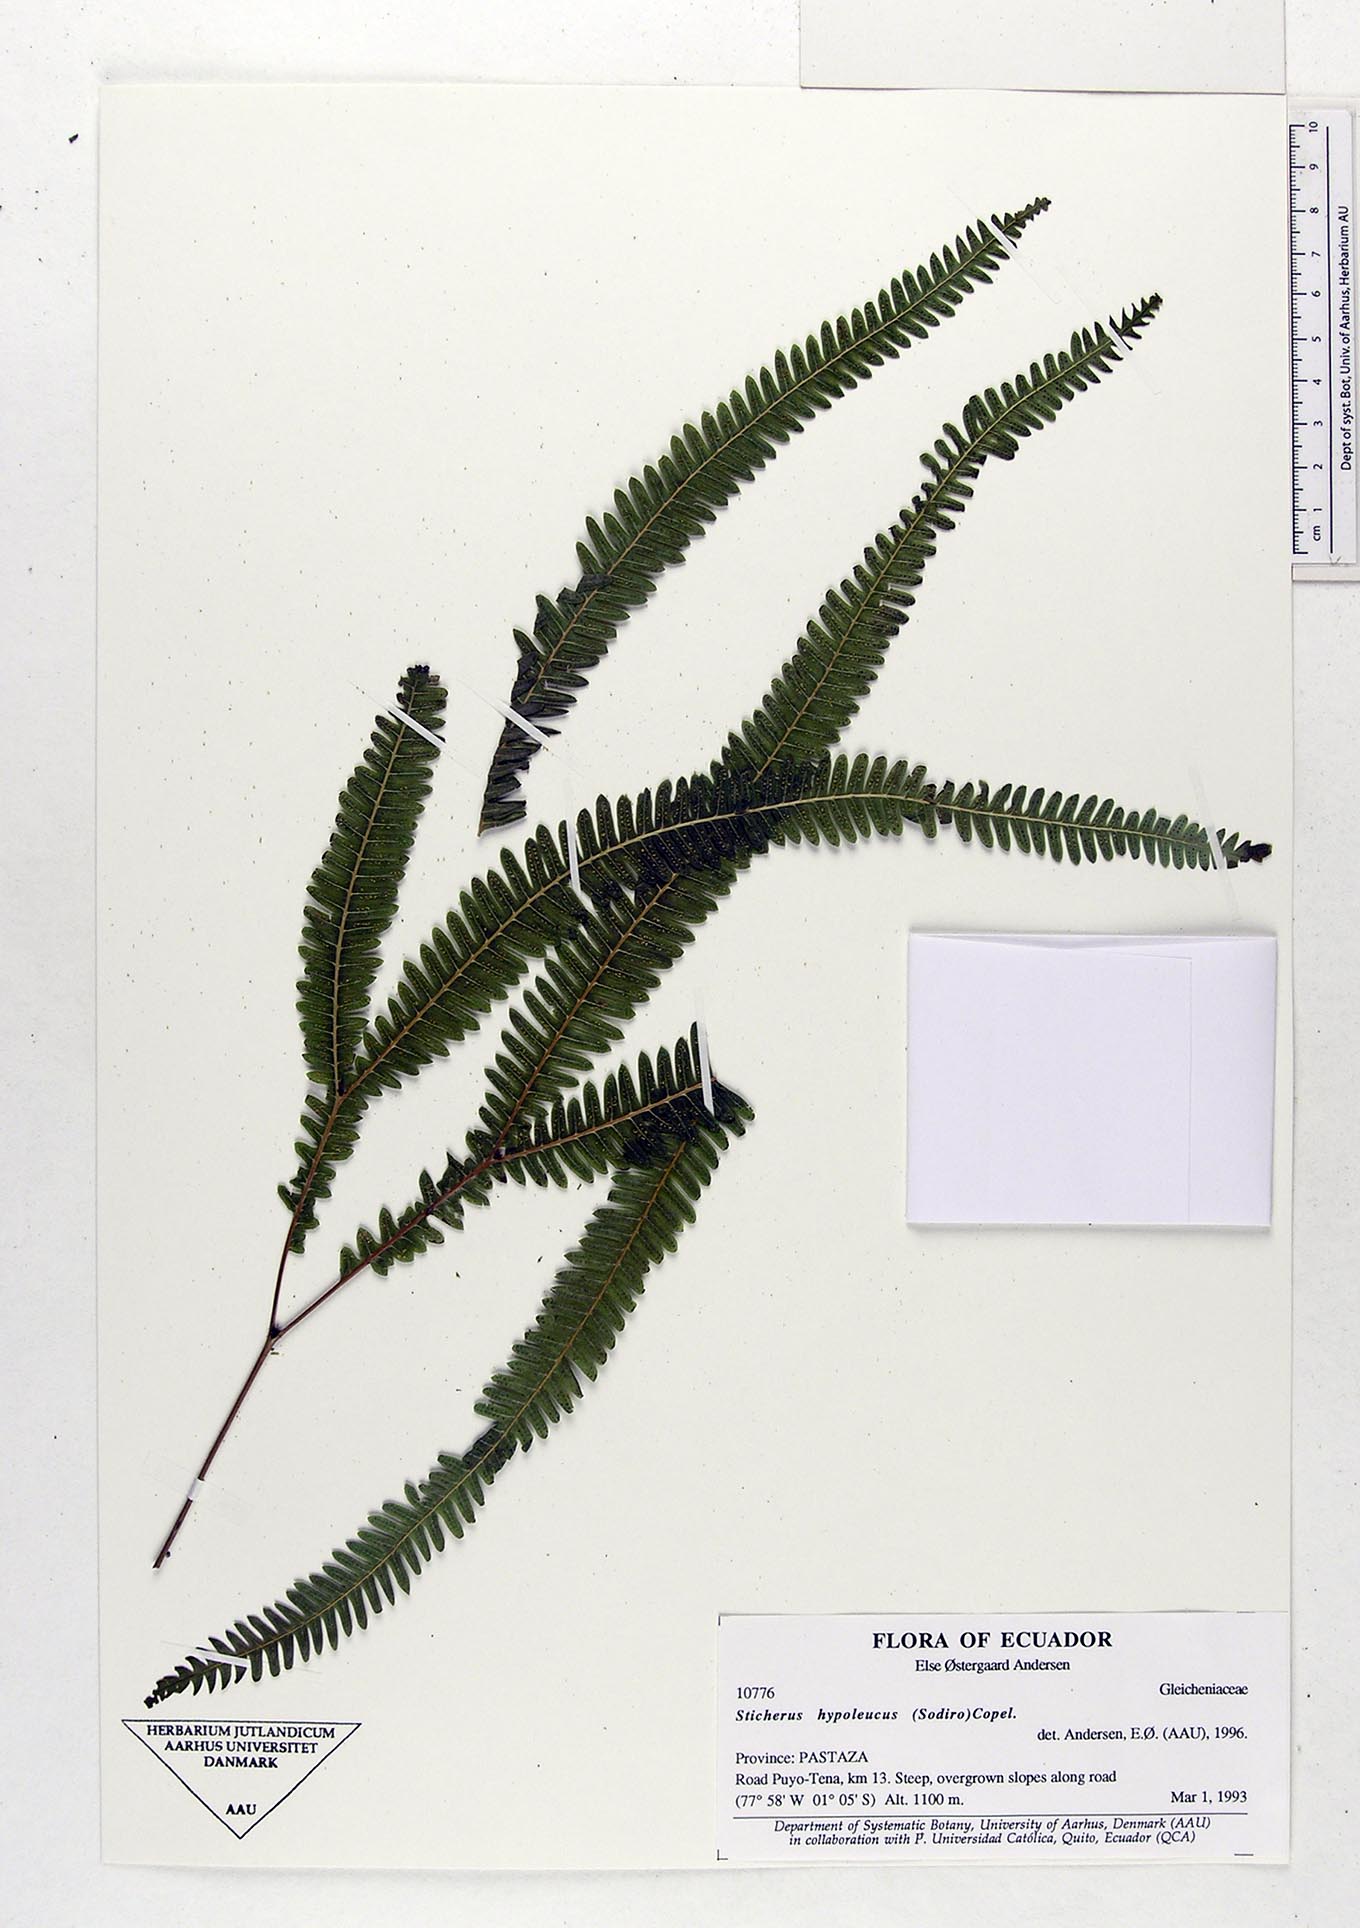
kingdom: Plantae
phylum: Tracheophyta
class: Polypodiopsida
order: Gleicheniales
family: Gleicheniaceae
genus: Sticherus
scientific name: Sticherus hypoleucus
